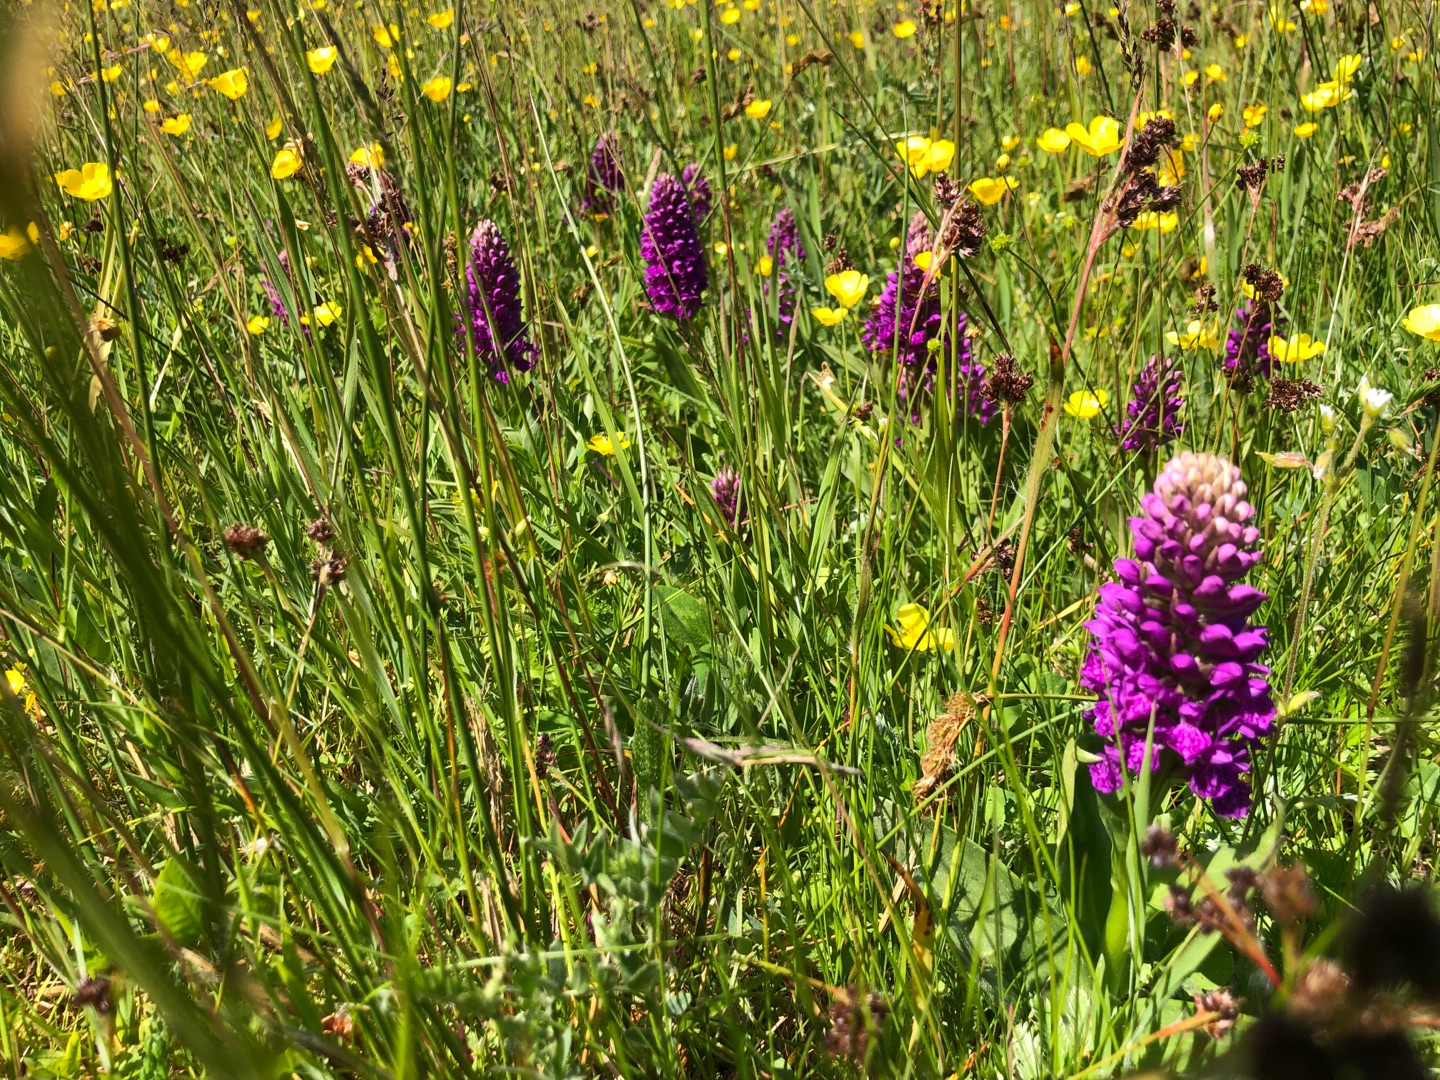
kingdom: Plantae
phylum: Tracheophyta
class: Liliopsida
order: Asparagales
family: Orchidaceae
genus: Dactylorhiza
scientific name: Dactylorhiza majalis
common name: Purpur-gøgeurt
